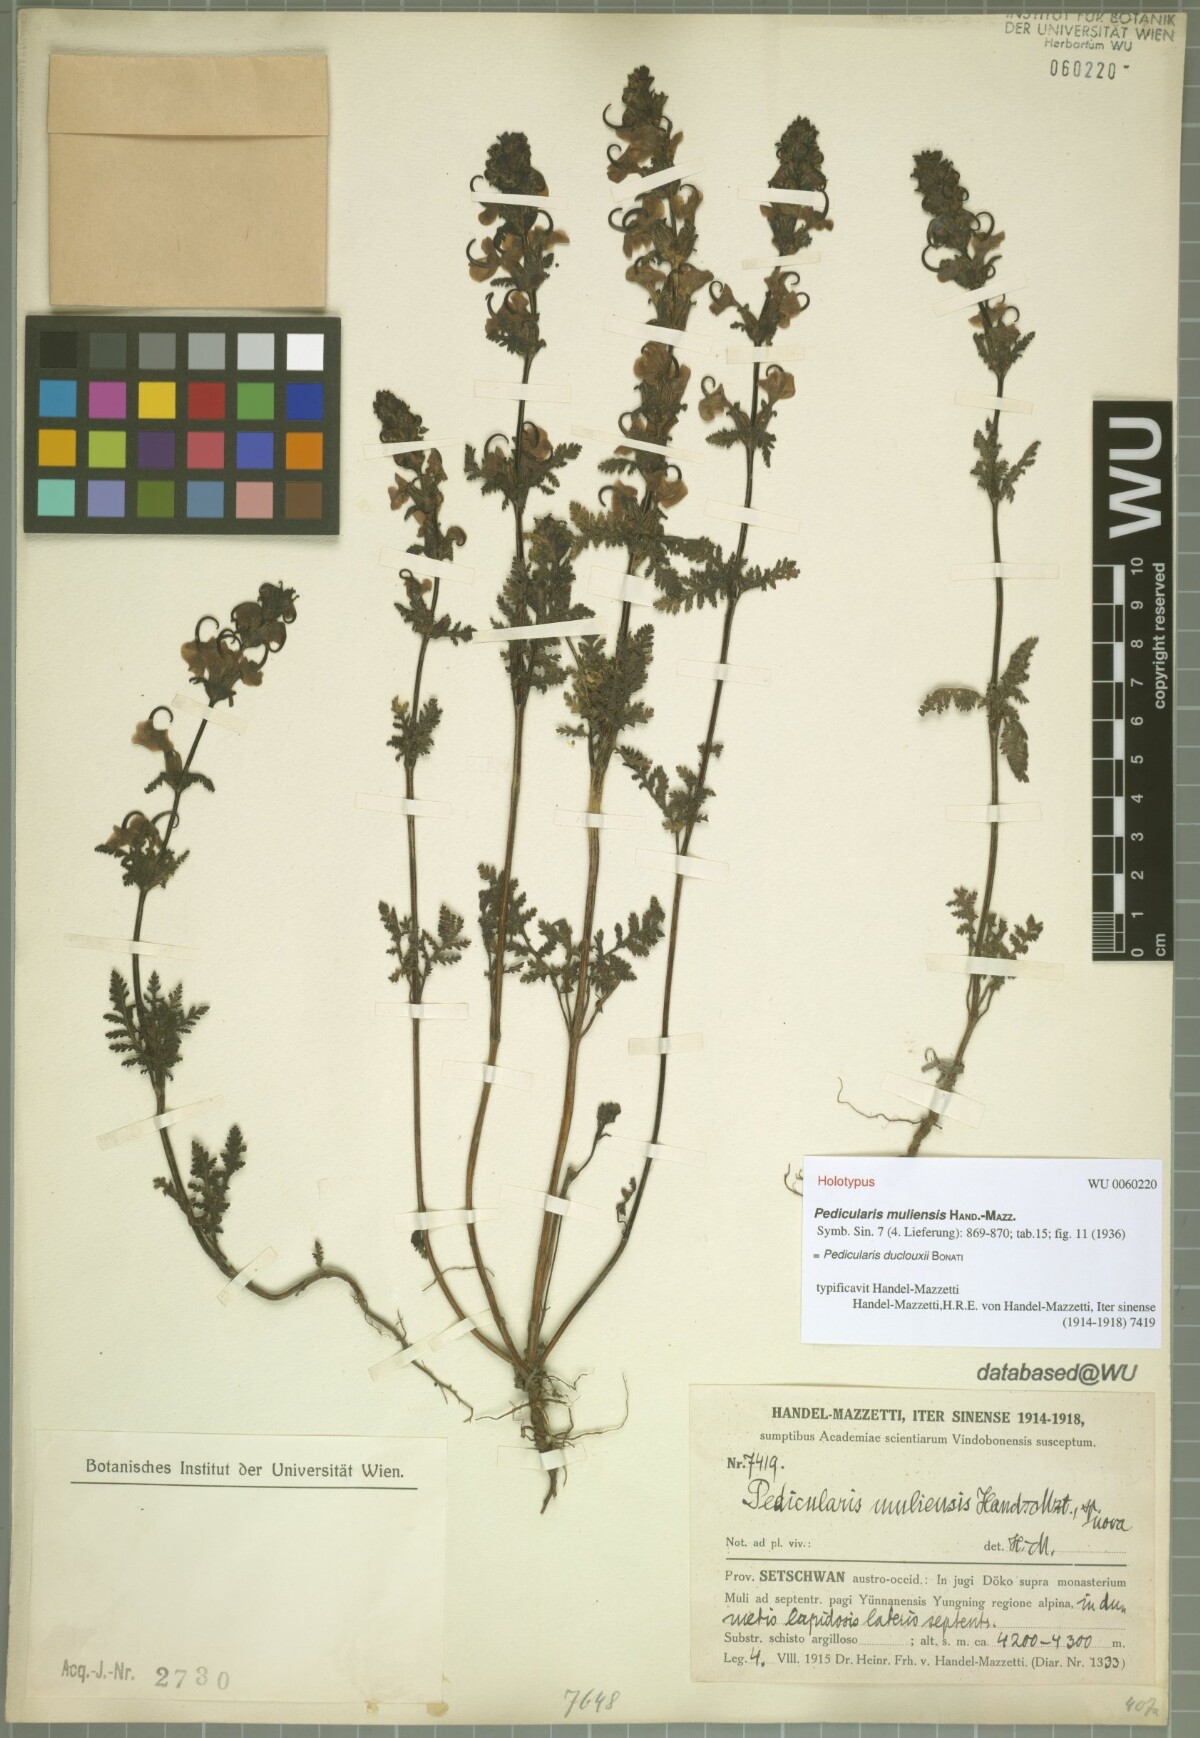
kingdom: Plantae
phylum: Tracheophyta
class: Magnoliopsida
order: Lamiales
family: Orobanchaceae
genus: Pedicularis
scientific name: Pedicularis duclouxii
